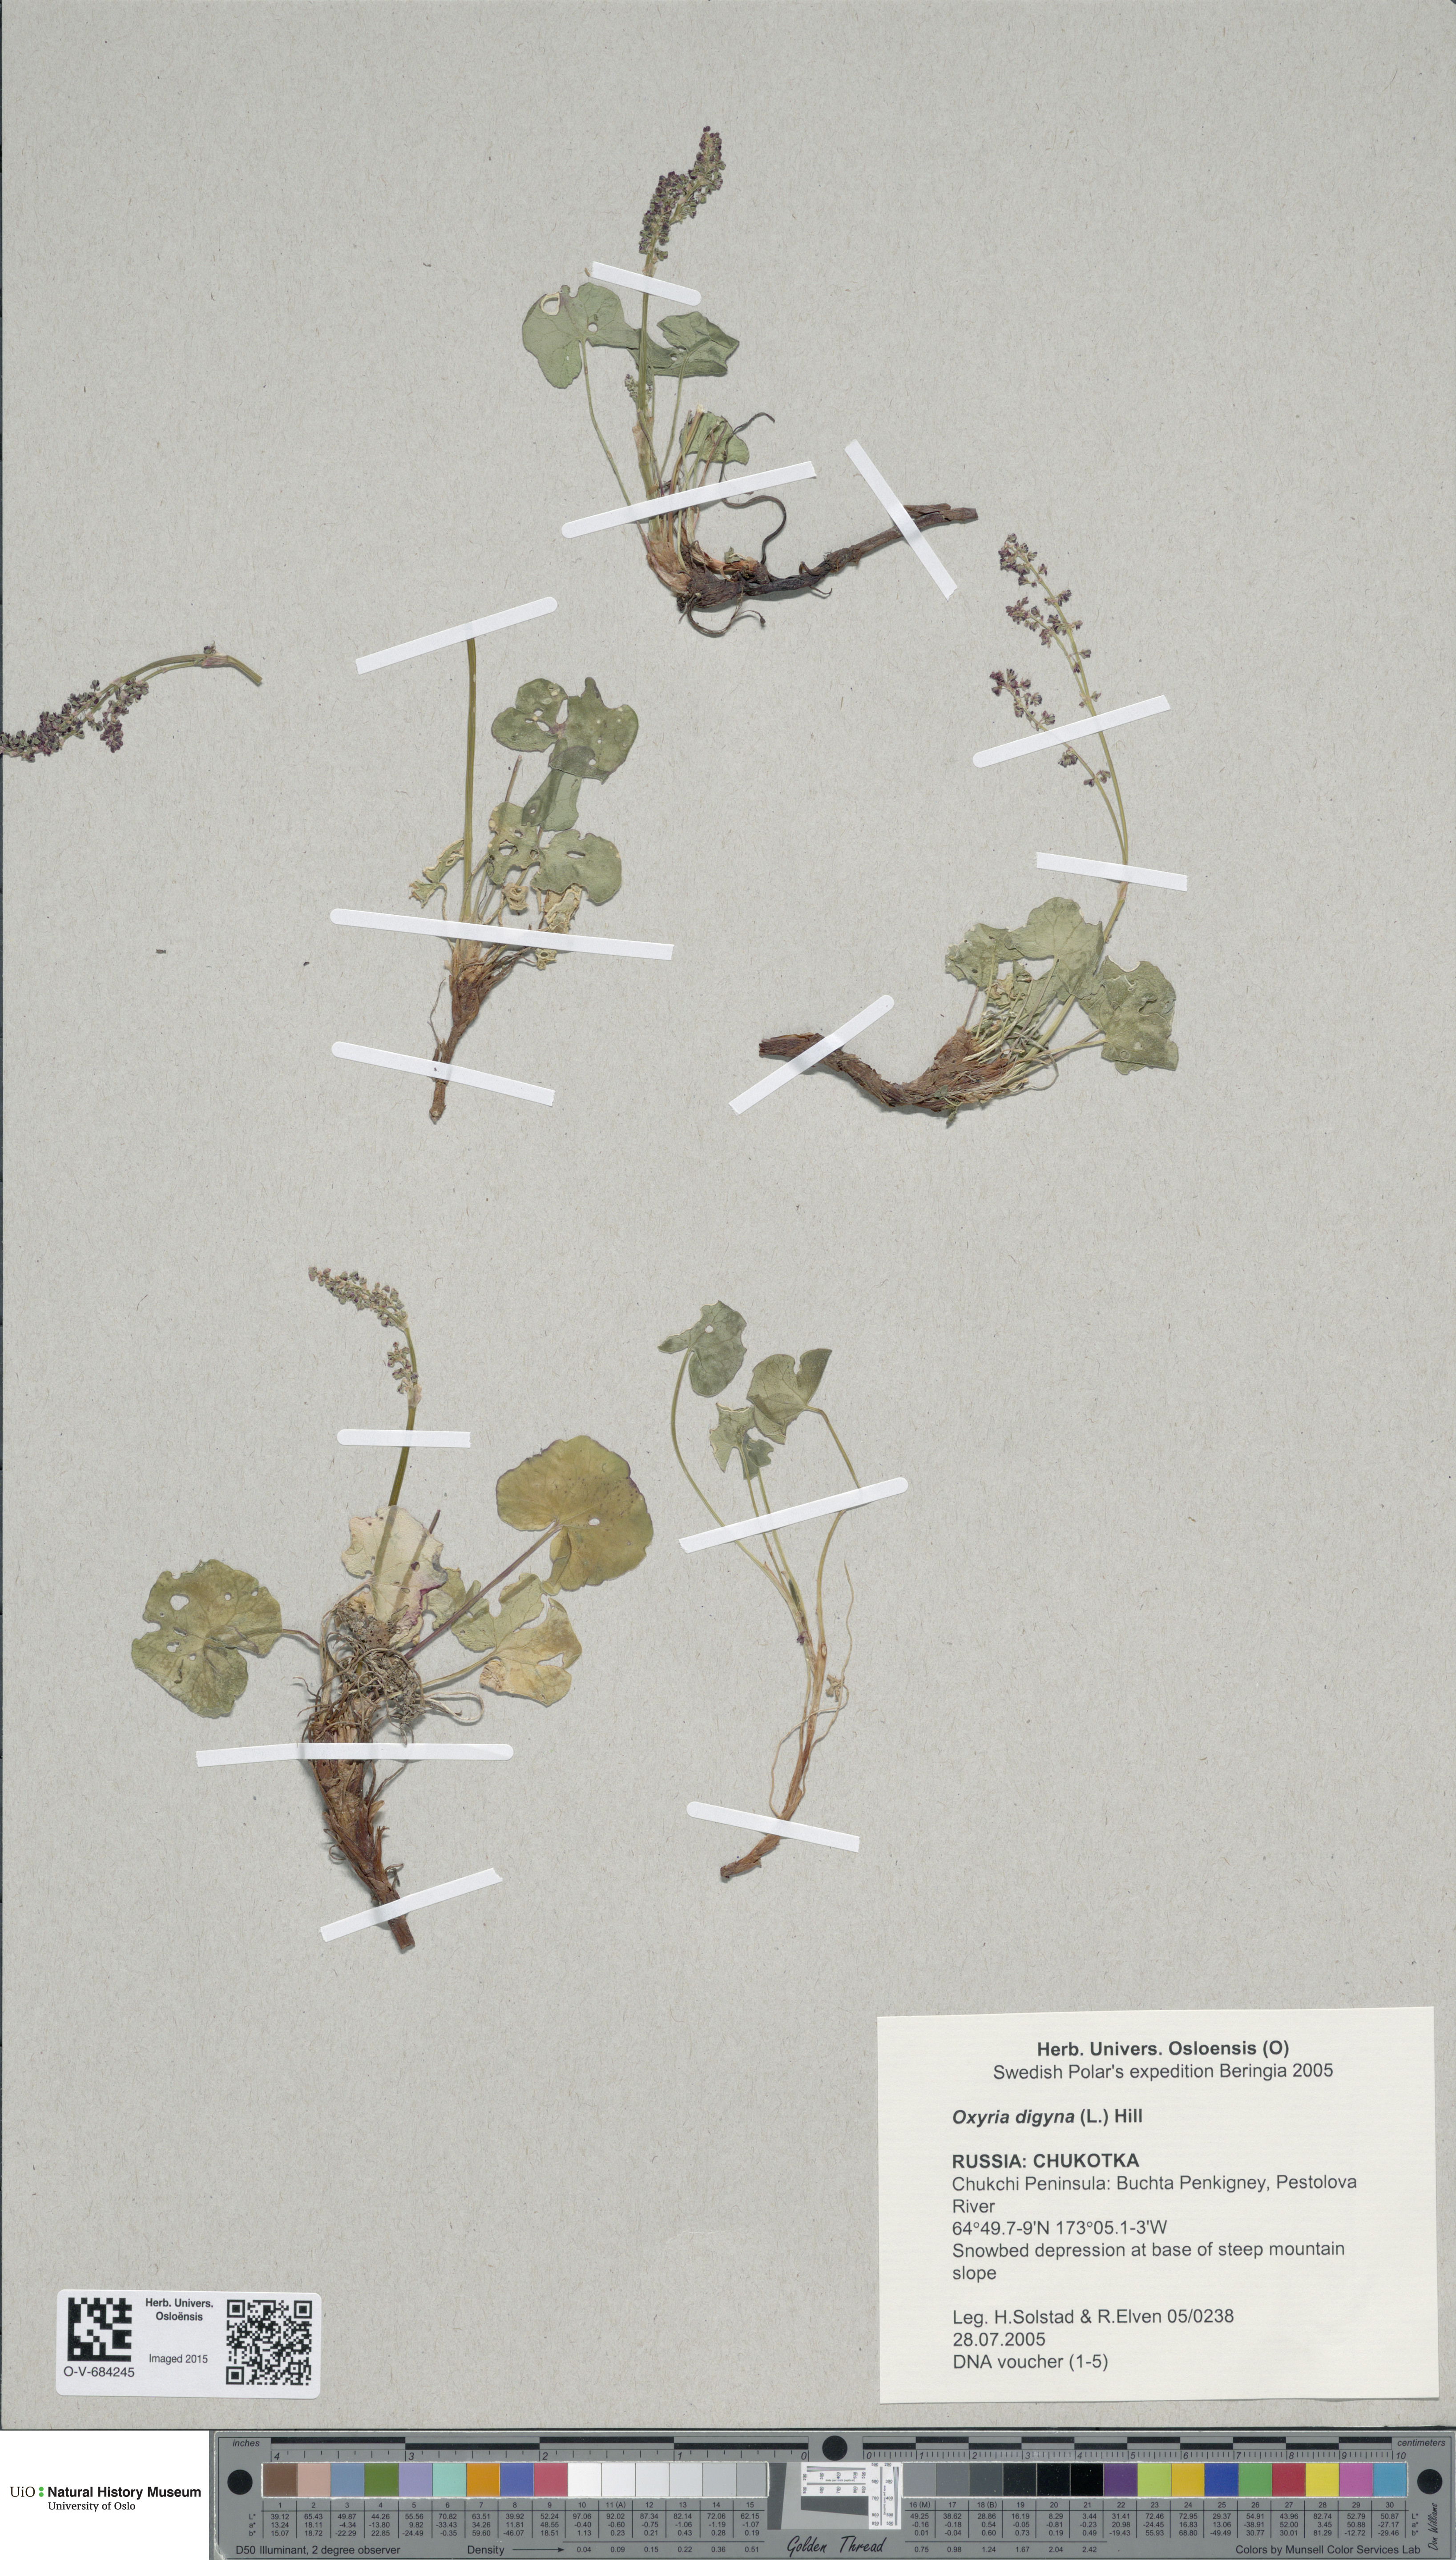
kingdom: Plantae
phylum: Tracheophyta
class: Magnoliopsida
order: Caryophyllales
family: Polygonaceae
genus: Oxyria
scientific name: Oxyria digyna
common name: Alpine mountain-sorrel
